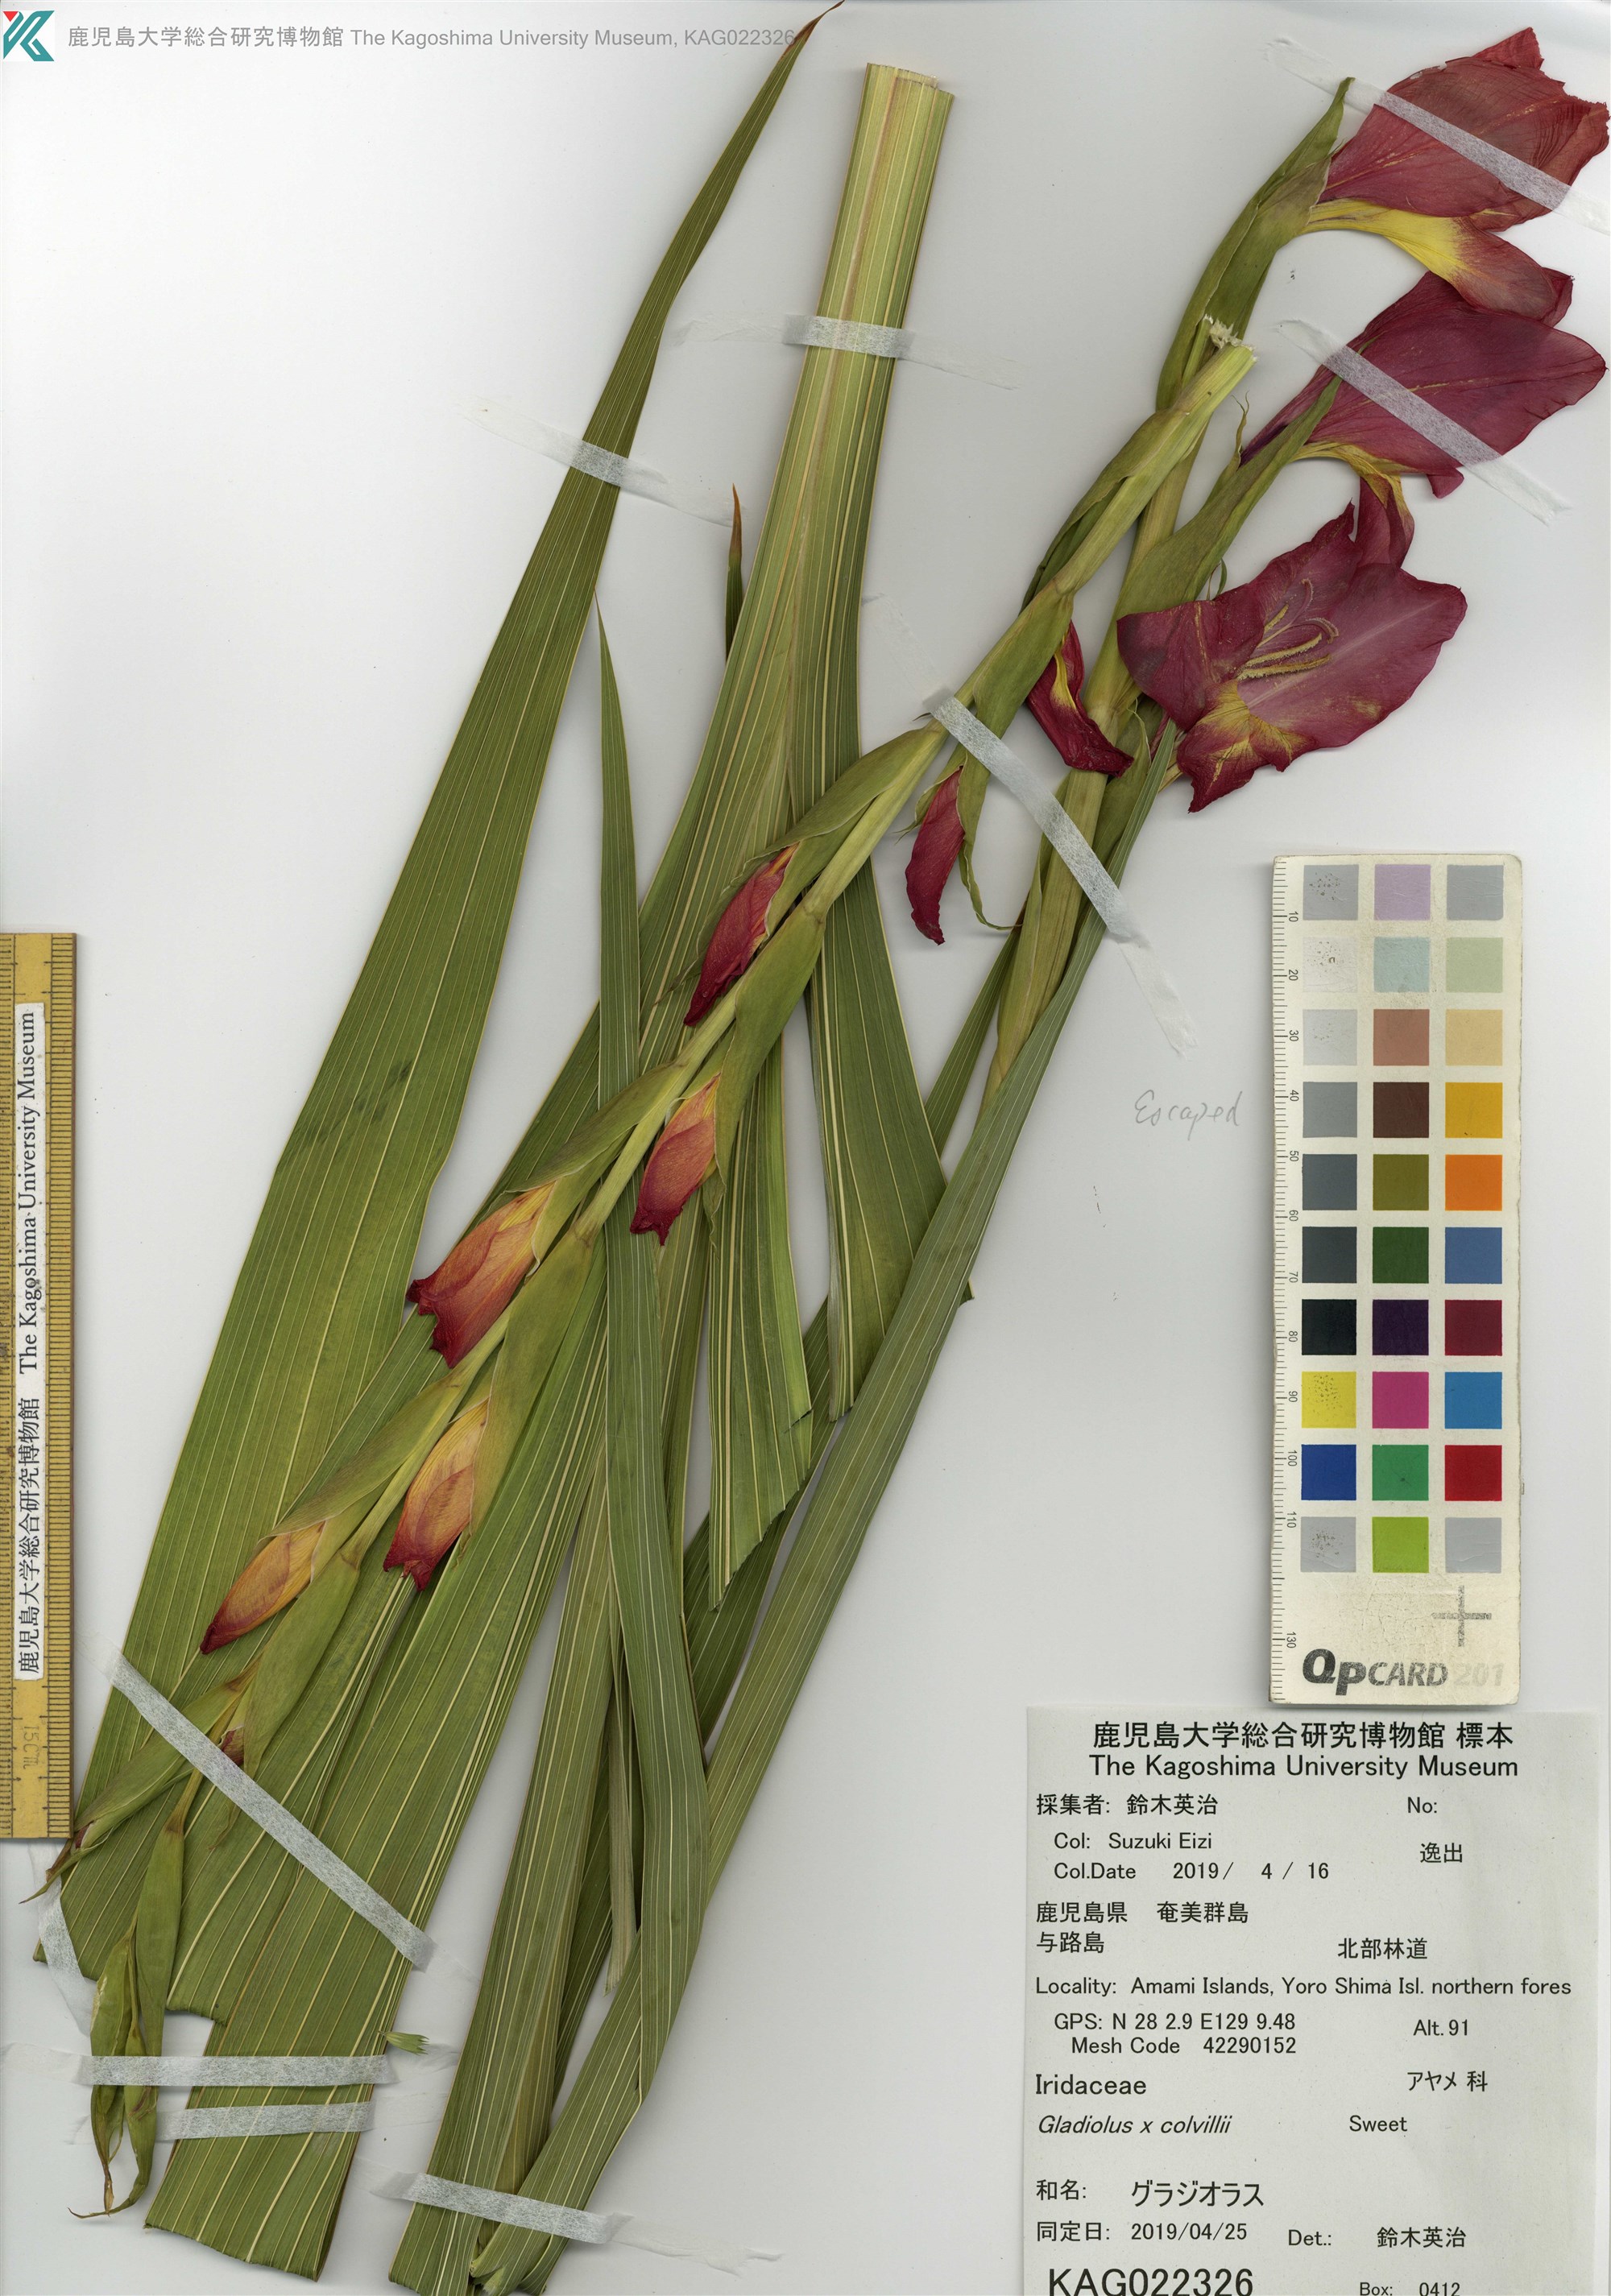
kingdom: Plantae
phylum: Tracheophyta
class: Liliopsida
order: Asparagales
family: Iridaceae
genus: Gladiolus
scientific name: Gladiolus colvillei
